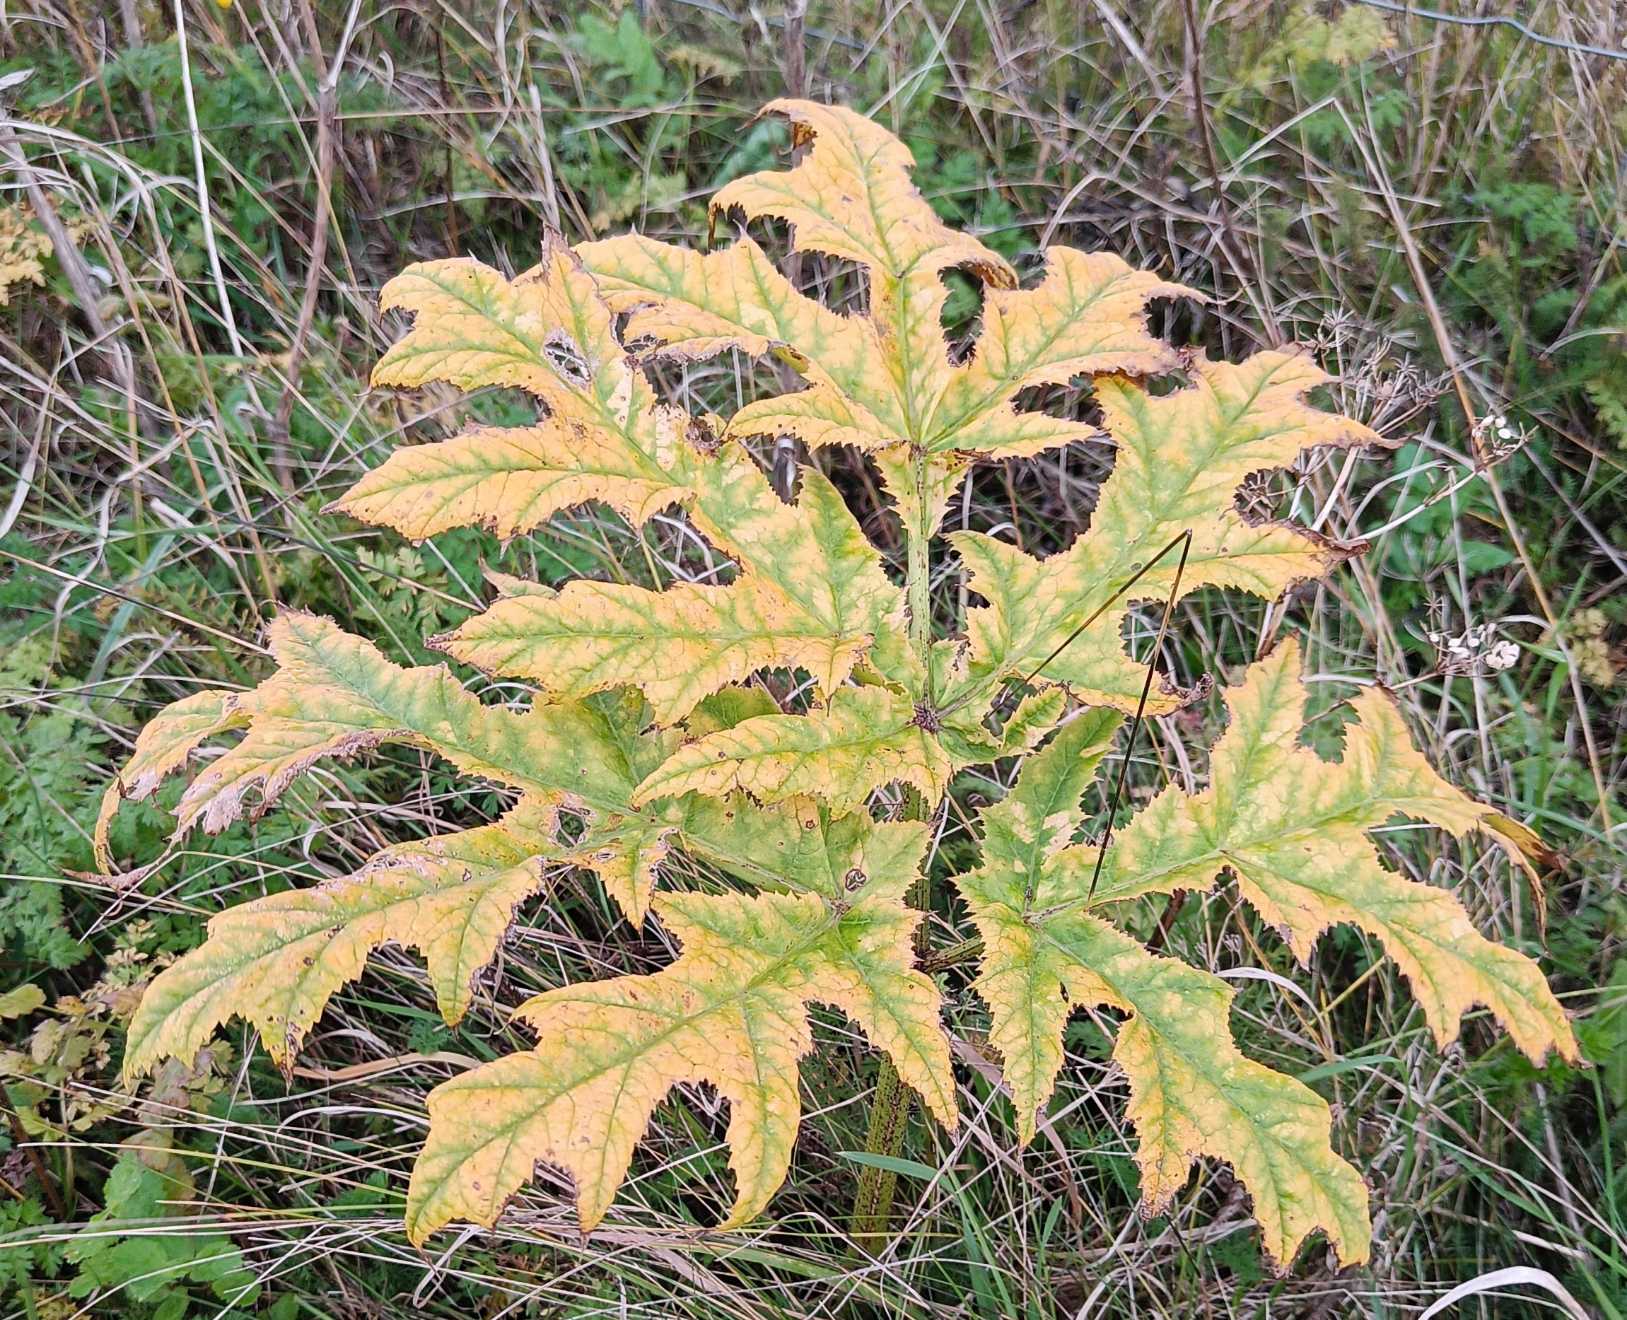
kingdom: Plantae
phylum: Tracheophyta
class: Magnoliopsida
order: Apiales
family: Apiaceae
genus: Heracleum
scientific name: Heracleum mantegazzianum
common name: Kæmpe-bjørneklo
